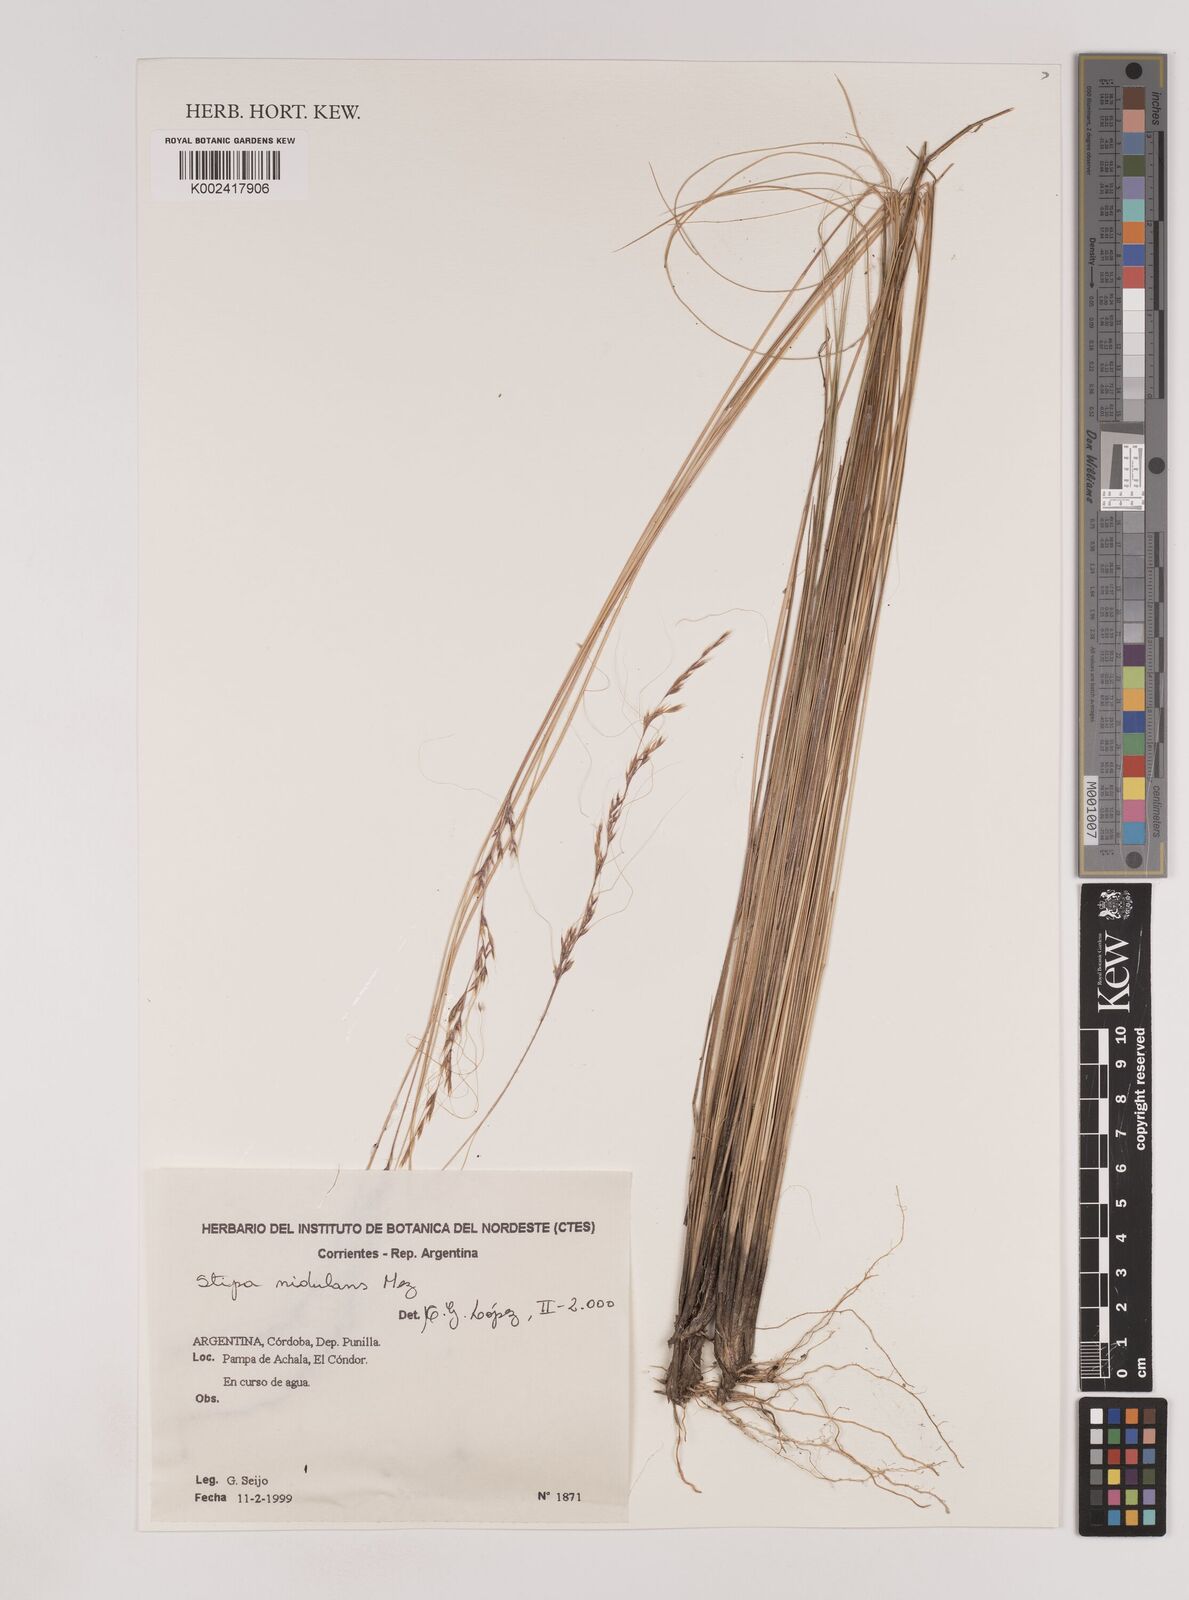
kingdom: Plantae
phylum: Tracheophyta
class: Liliopsida
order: Poales
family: Poaceae
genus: Nassella
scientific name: Nassella nidulans
